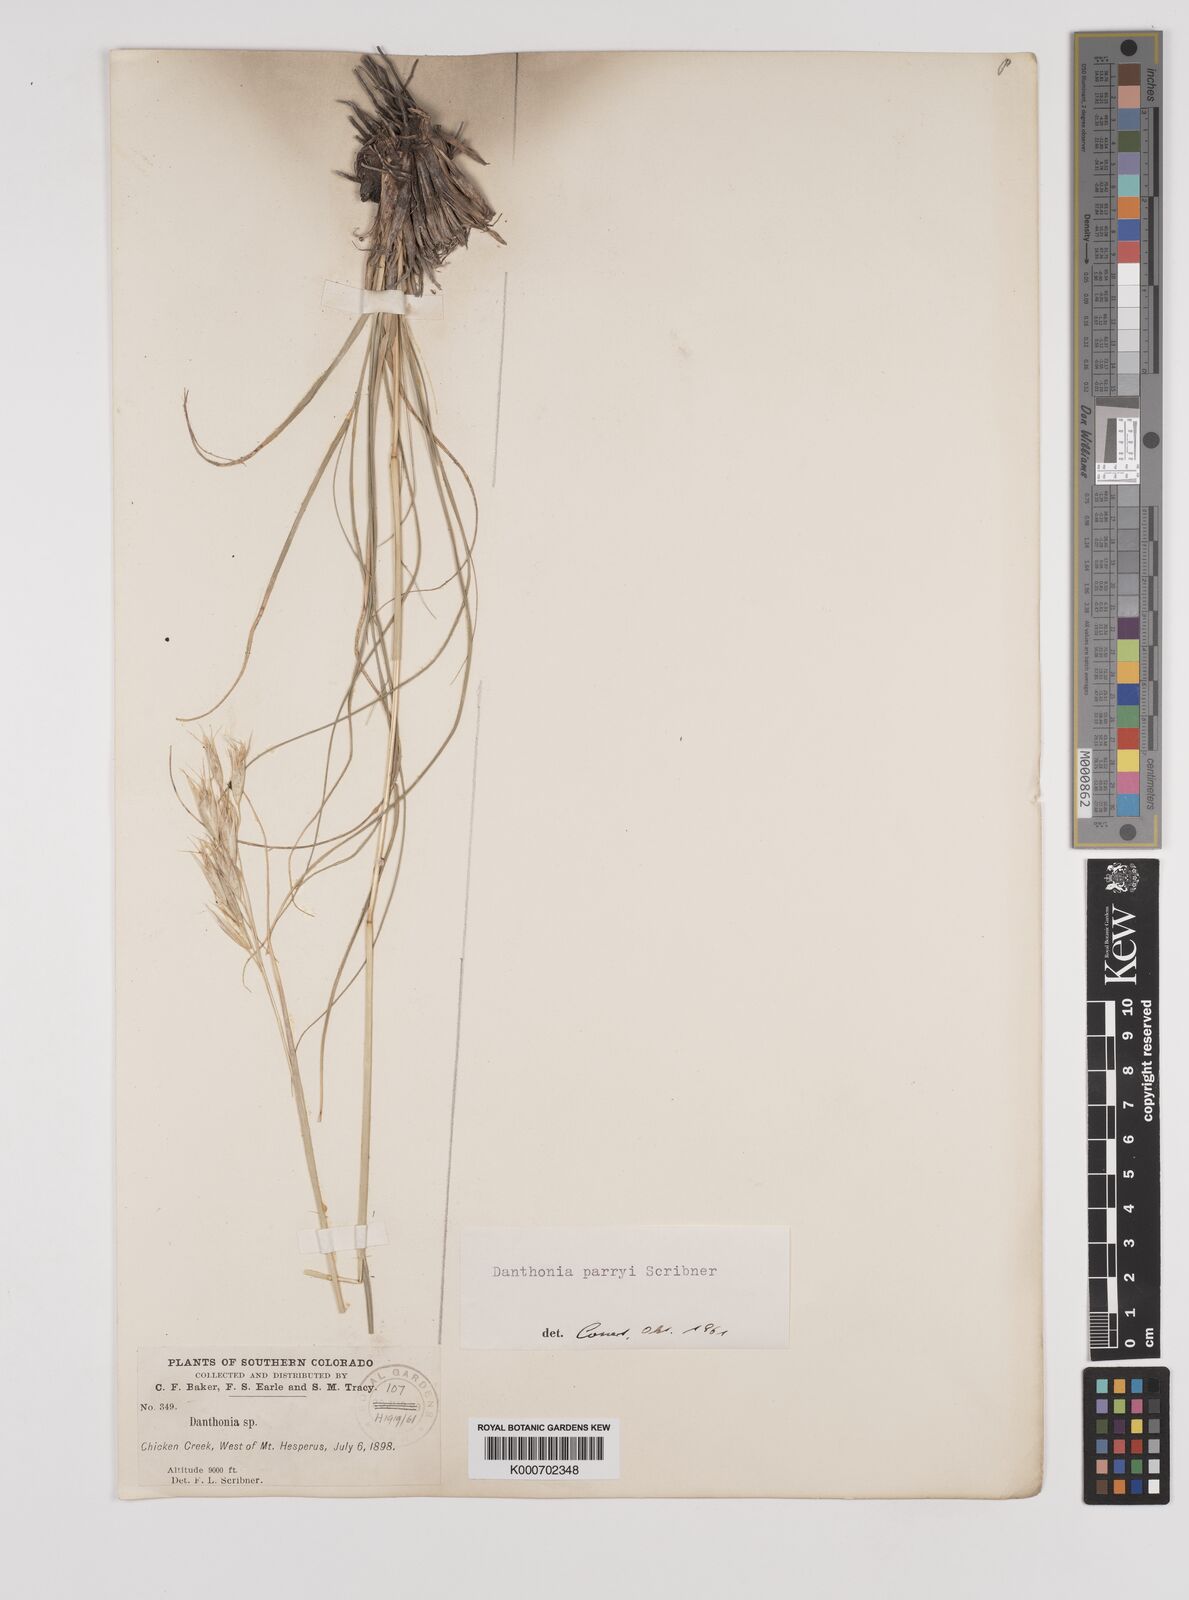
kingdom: Plantae
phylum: Tracheophyta
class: Liliopsida
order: Poales
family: Poaceae
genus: Danthonia
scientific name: Danthonia parryi
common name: Parry's oat grass
